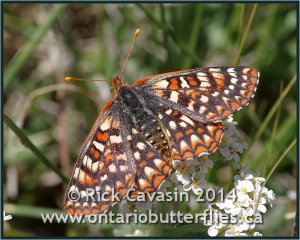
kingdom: Animalia
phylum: Arthropoda
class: Insecta
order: Lepidoptera
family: Nymphalidae
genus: Occidryas
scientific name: Occidryas anicia
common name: Anicia Checkerspot
